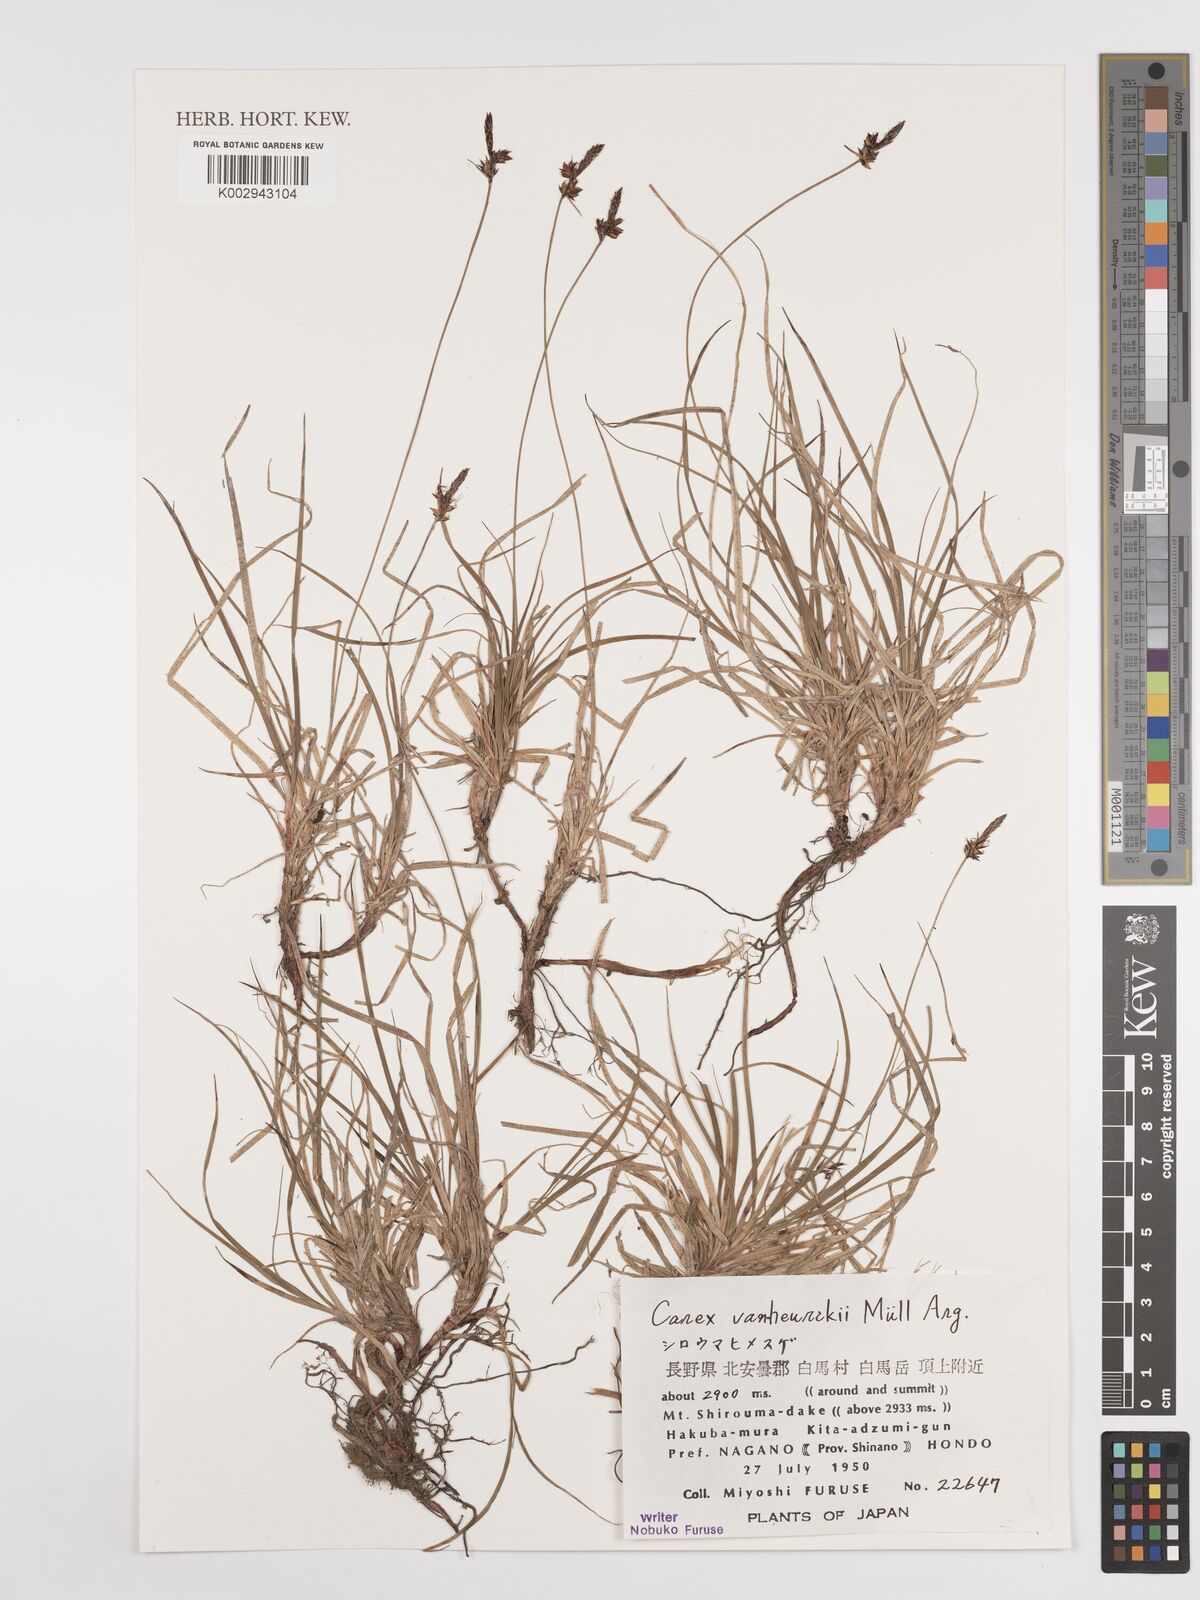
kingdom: Plantae
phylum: Tracheophyta
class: Liliopsida
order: Poales
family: Cyperaceae
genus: Carex
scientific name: Carex vanheurckii
